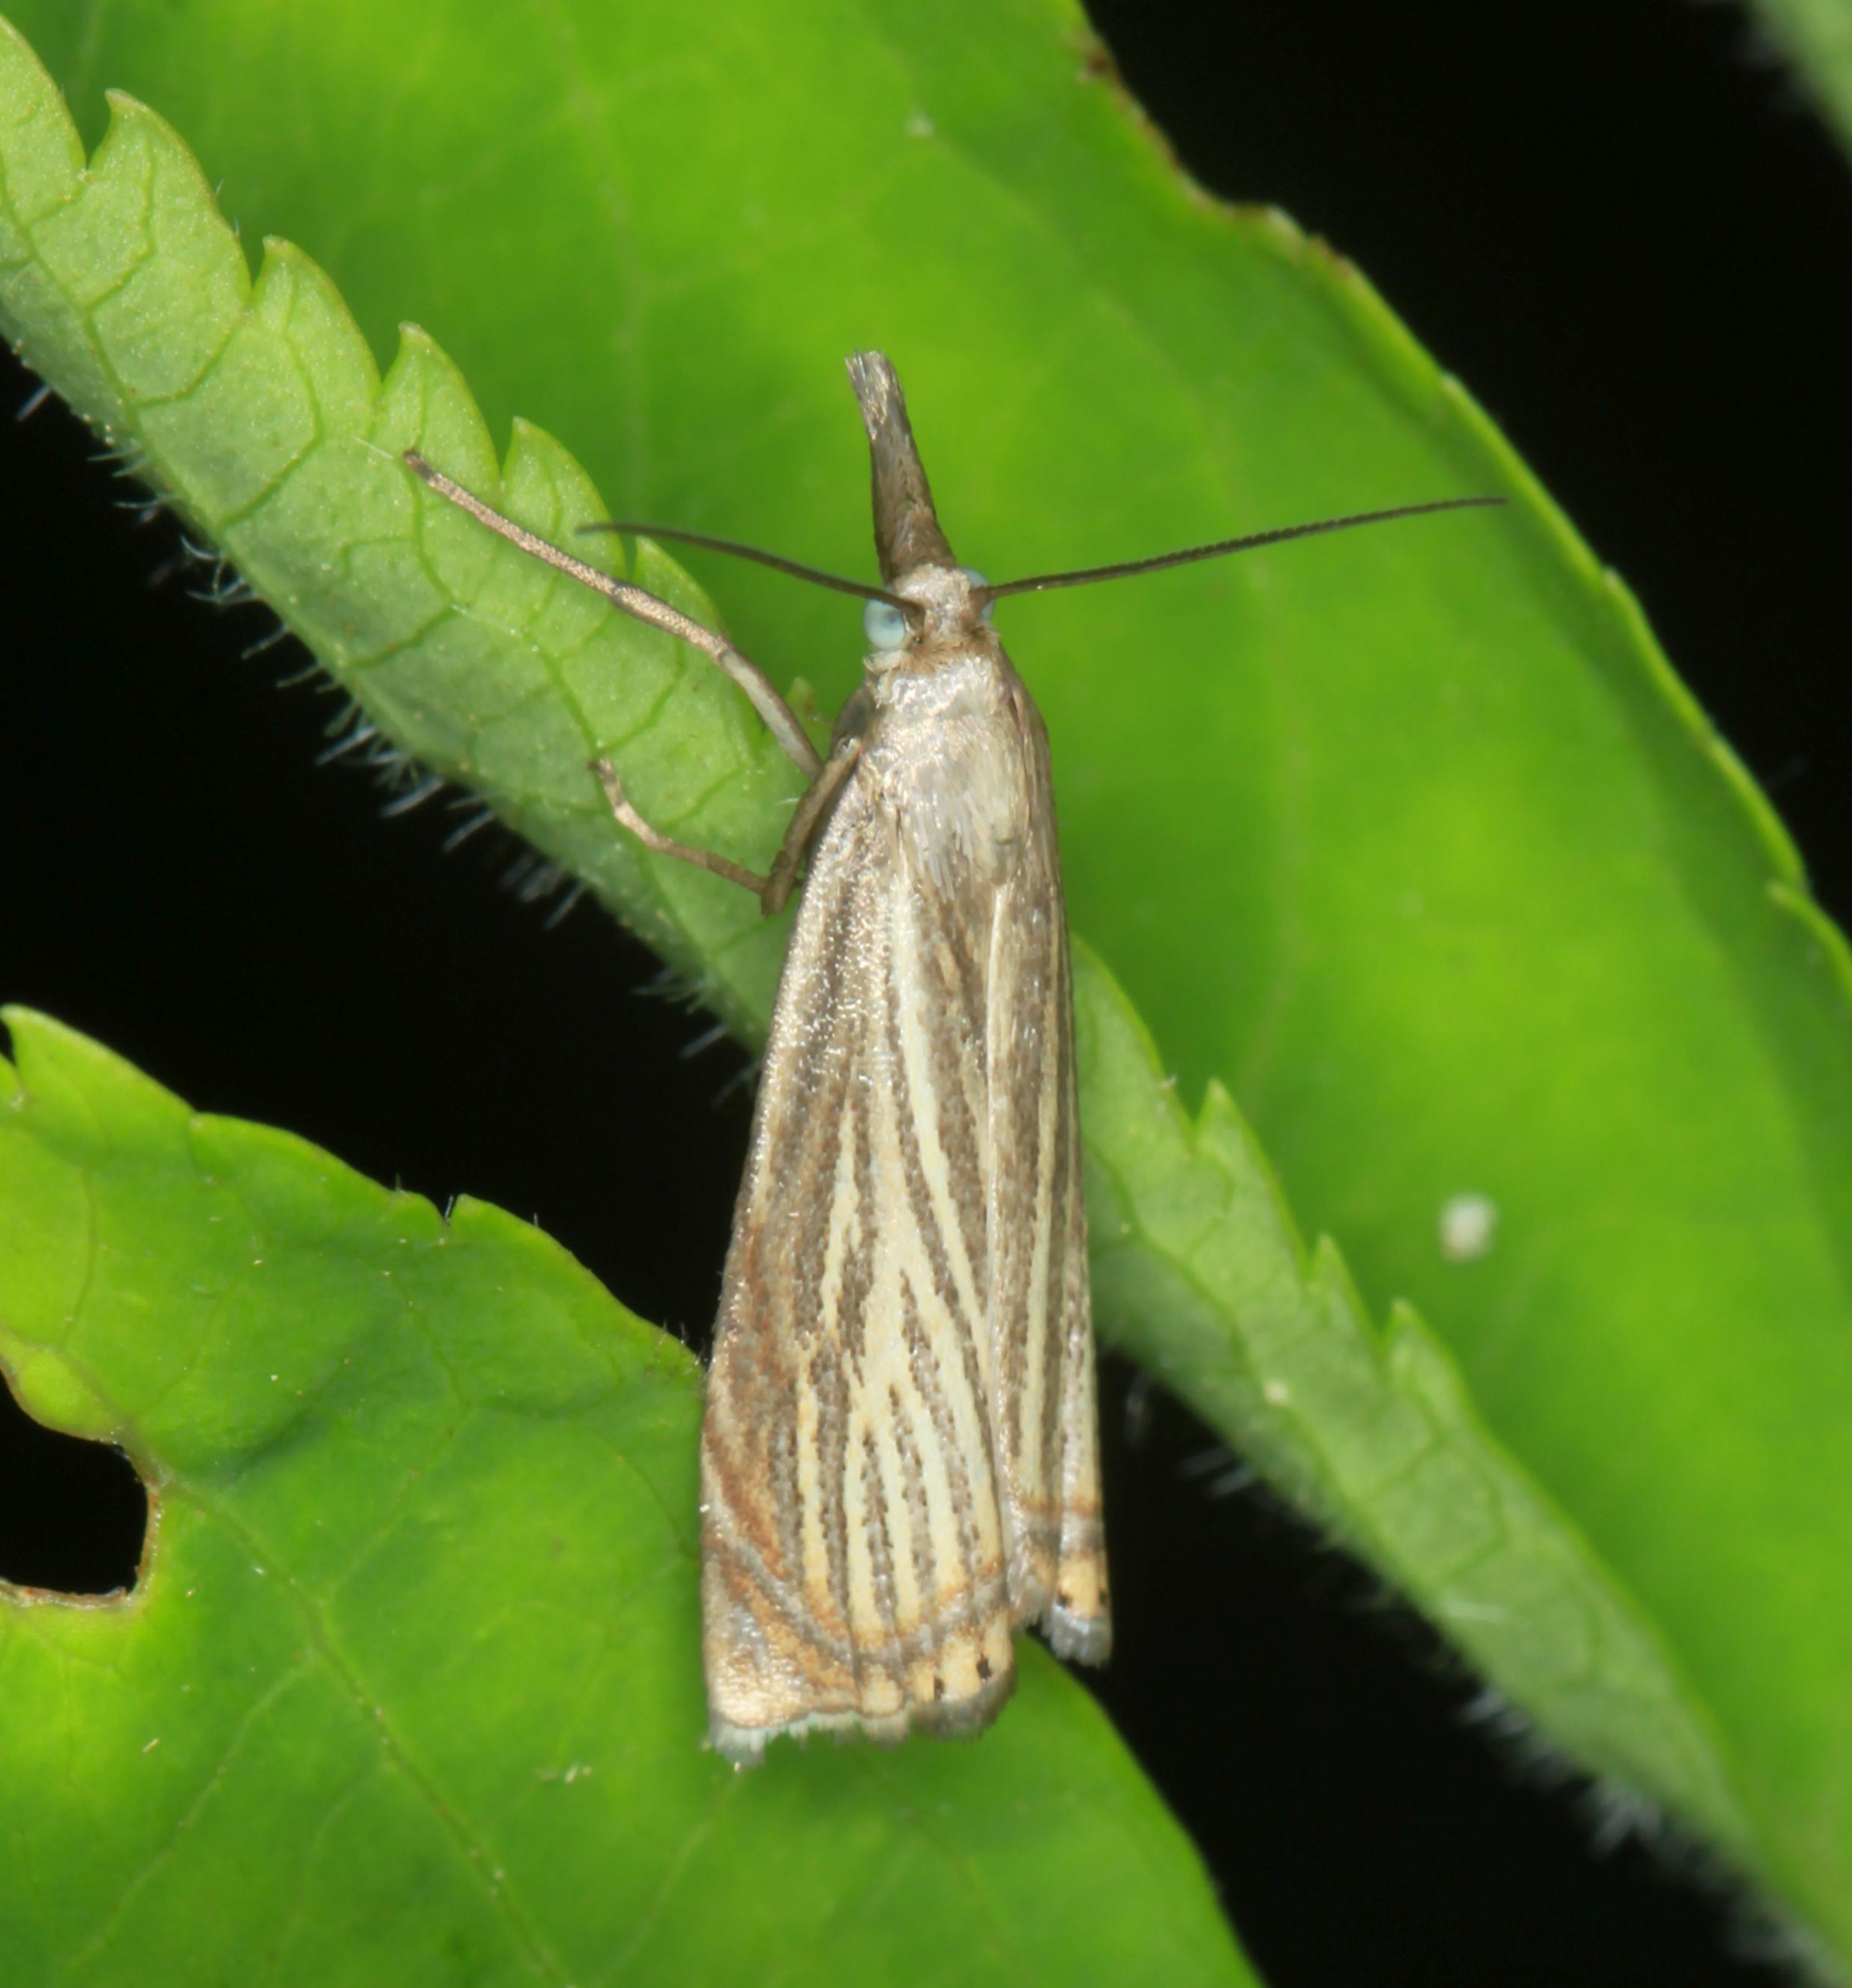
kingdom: Animalia
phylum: Arthropoda
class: Insecta
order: Lepidoptera
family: Crambidae
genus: Chrysoteuchia
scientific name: Chrysoteuchia culmella
